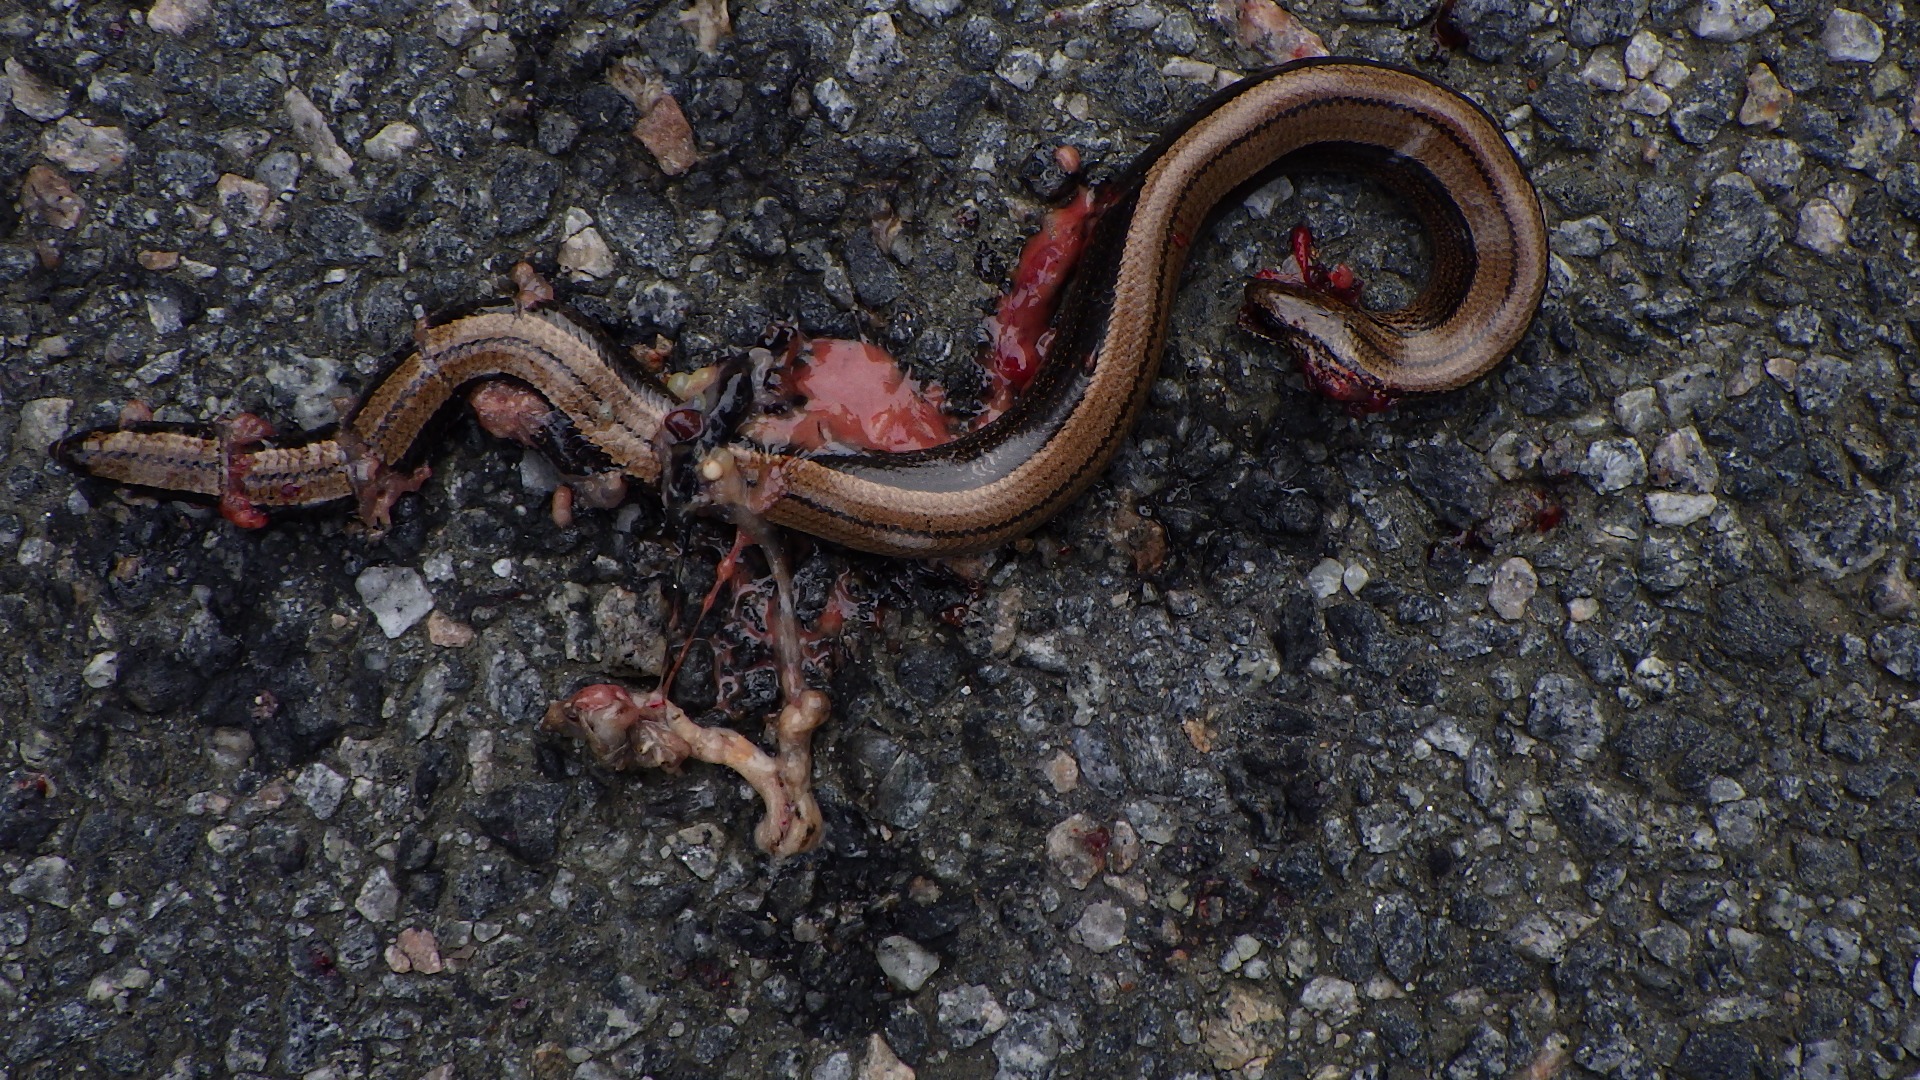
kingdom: Animalia
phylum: Chordata
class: Squamata
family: Anguidae
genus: Anguis
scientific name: Anguis fragilis
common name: Stålorm
